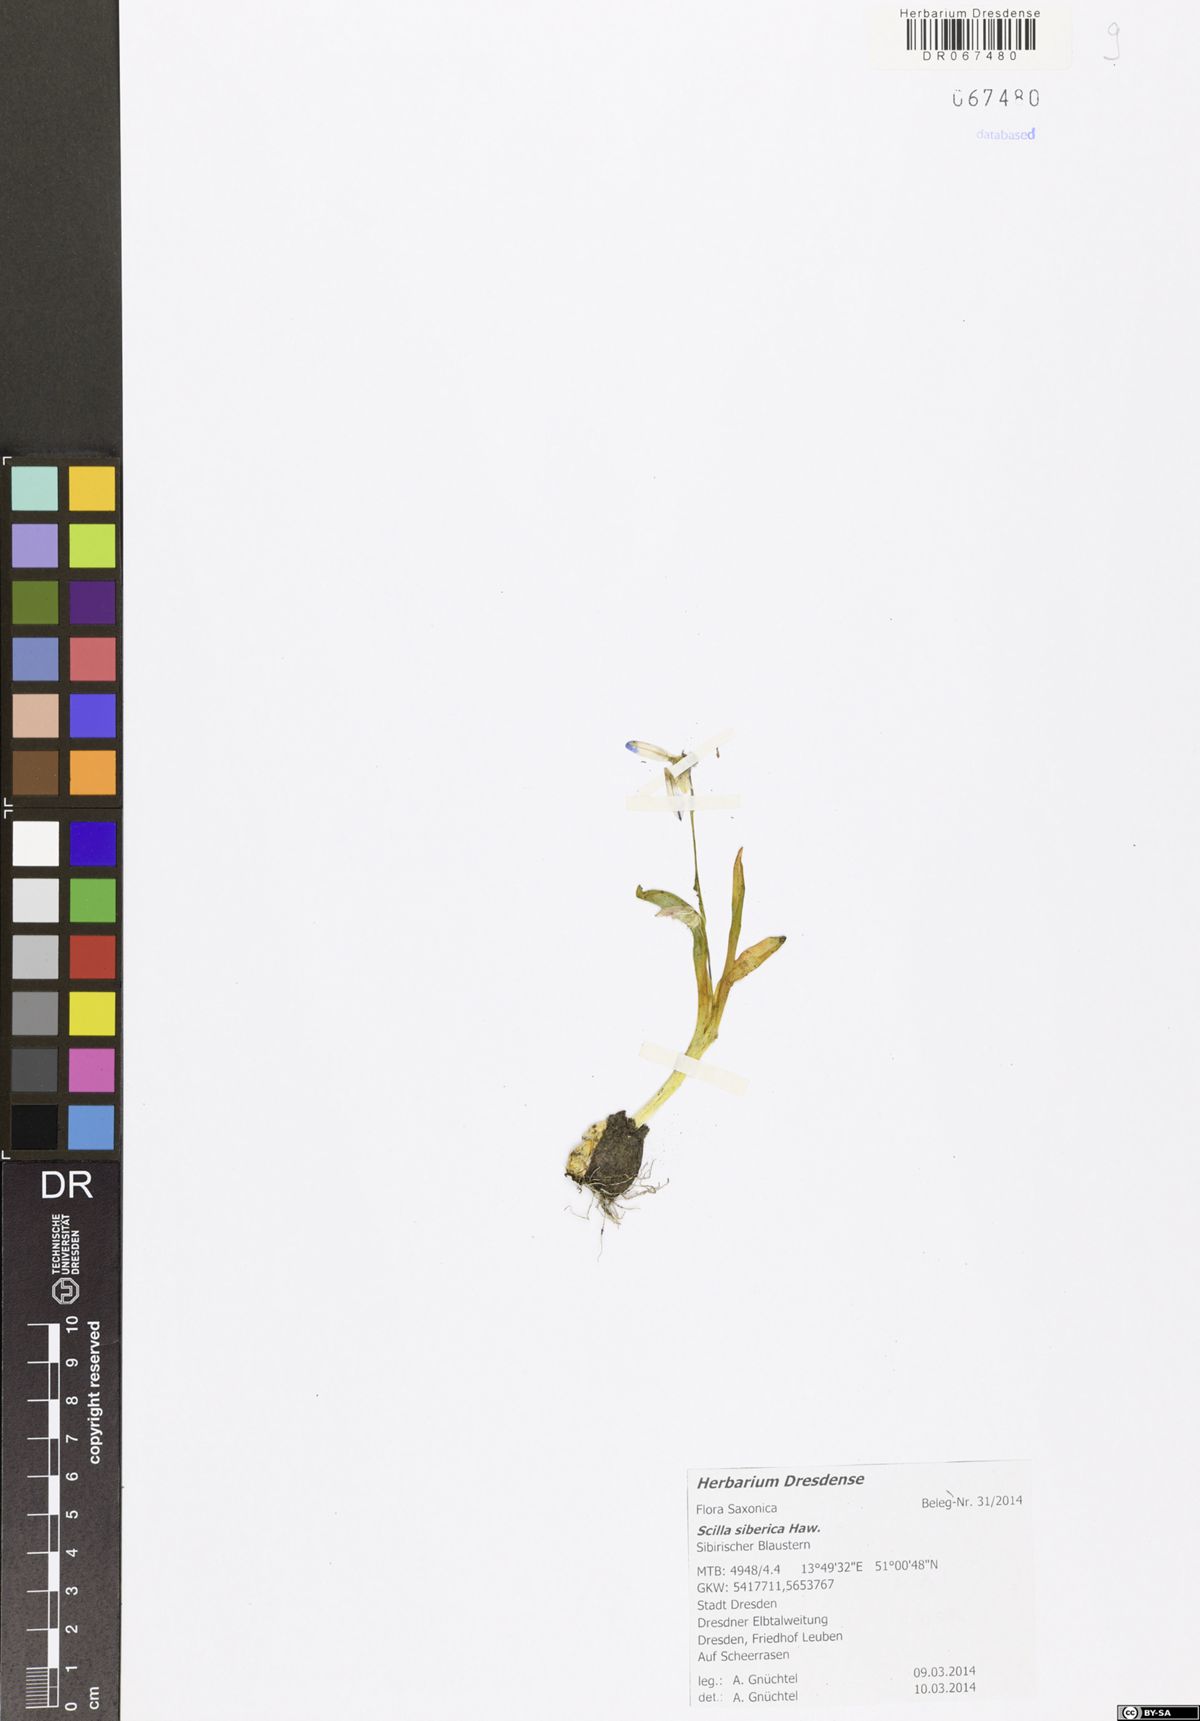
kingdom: Plantae
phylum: Tracheophyta
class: Liliopsida
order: Asparagales
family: Asparagaceae
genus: Scilla
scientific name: Scilla siberica
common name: Siberian squill
